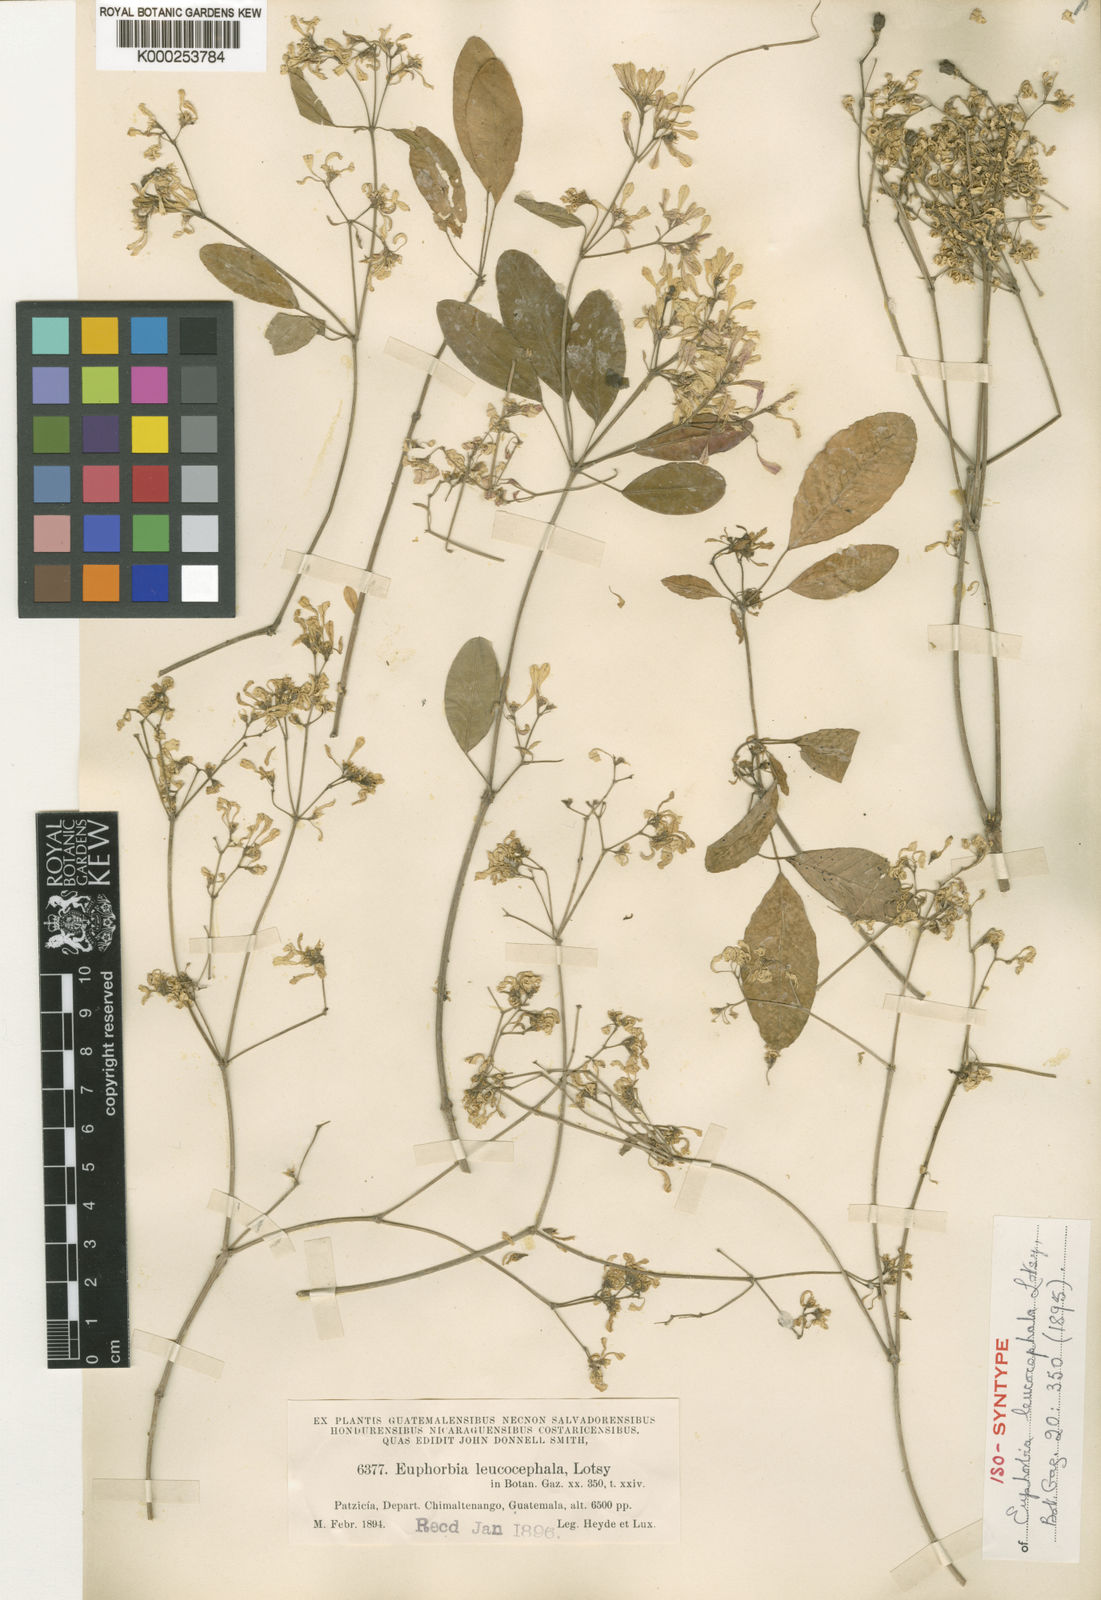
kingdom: Plantae
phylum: Tracheophyta
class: Magnoliopsida
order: Malpighiales
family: Euphorbiaceae
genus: Euphorbia
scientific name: Euphorbia leucocephala
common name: Pascuita
